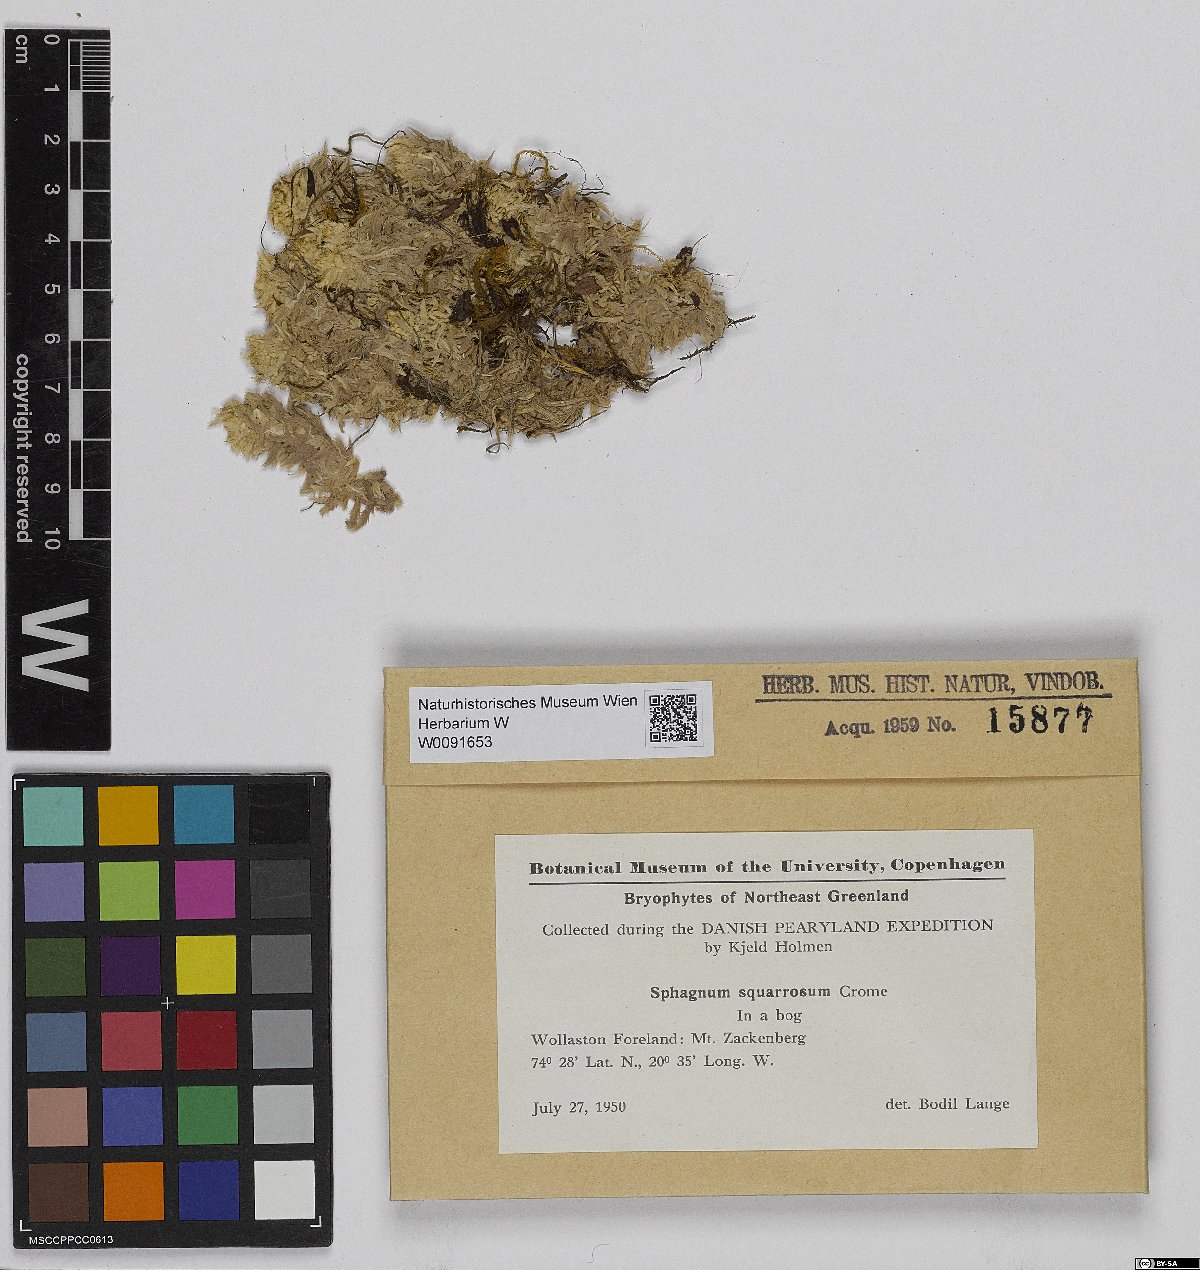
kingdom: Plantae
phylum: Bryophyta
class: Sphagnopsida
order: Sphagnales
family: Sphagnaceae
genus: Sphagnum
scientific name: Sphagnum squarrosum
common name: Shaggy peat moss
